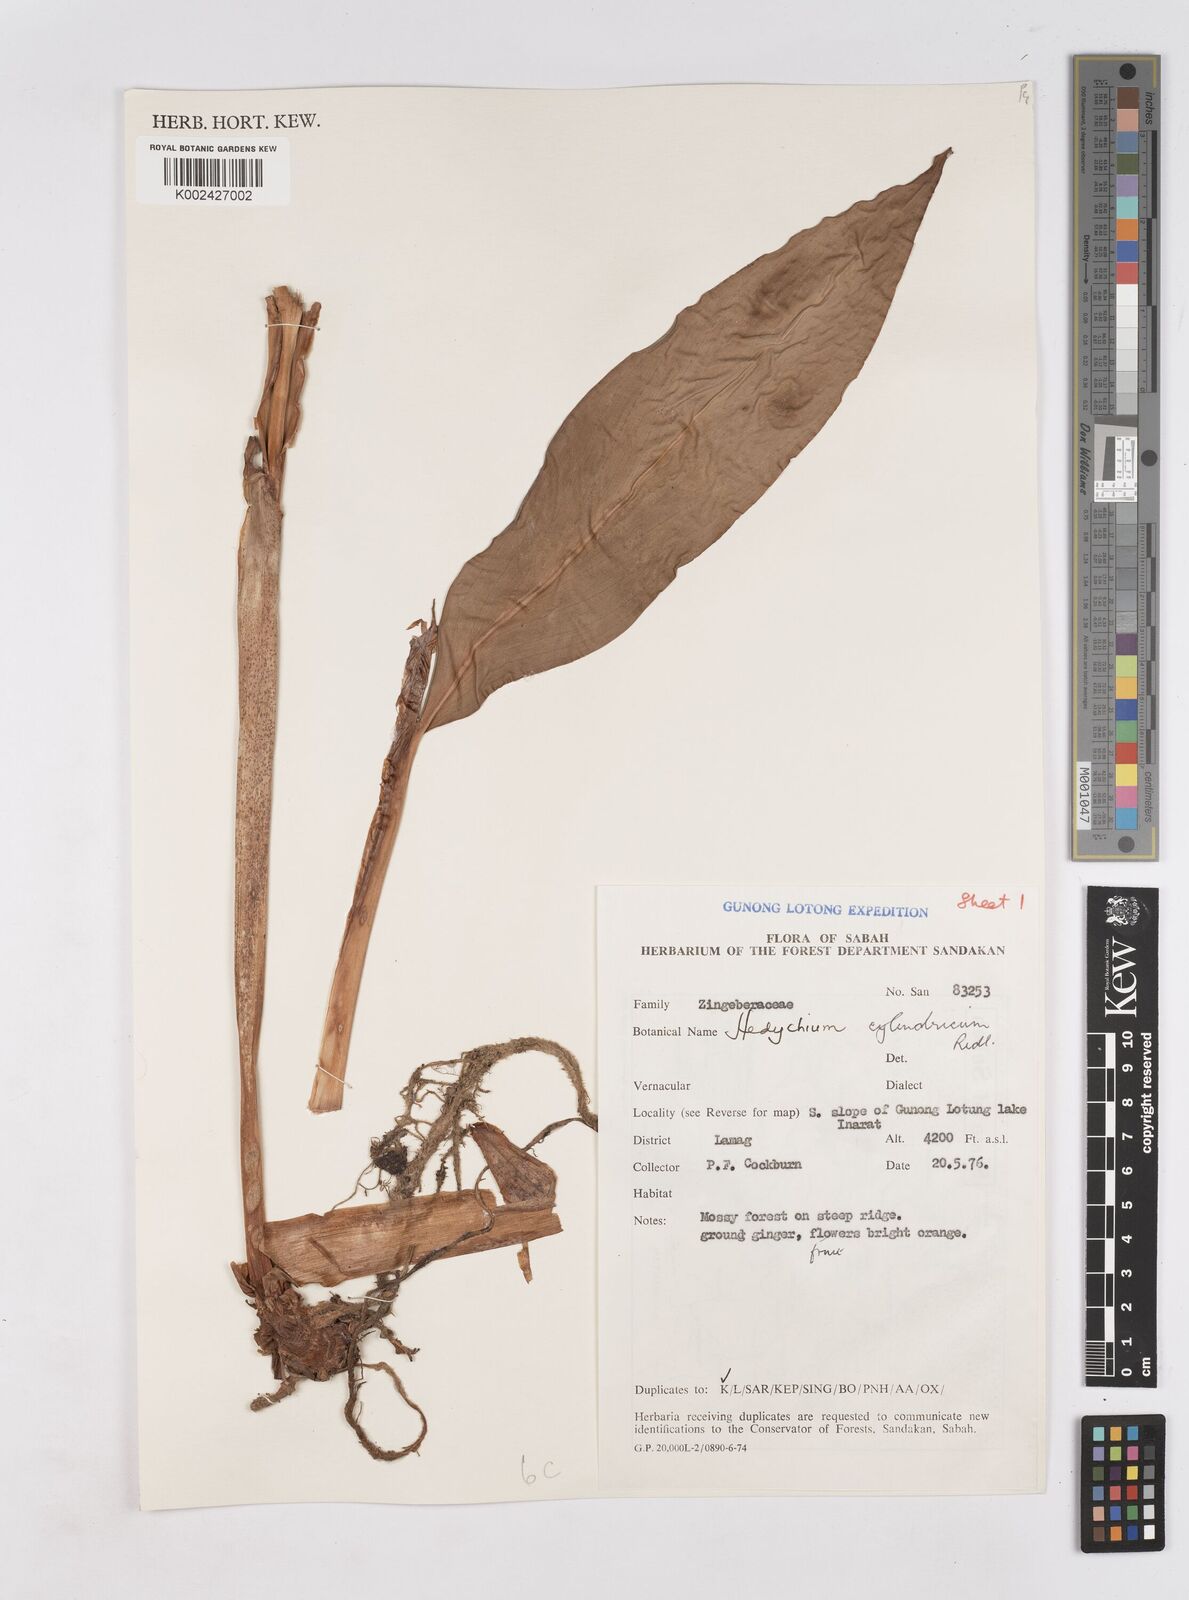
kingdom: Plantae
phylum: Tracheophyta
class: Liliopsida
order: Zingiberales
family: Zingiberaceae
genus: Hedychium
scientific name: Hedychium cylindricum
